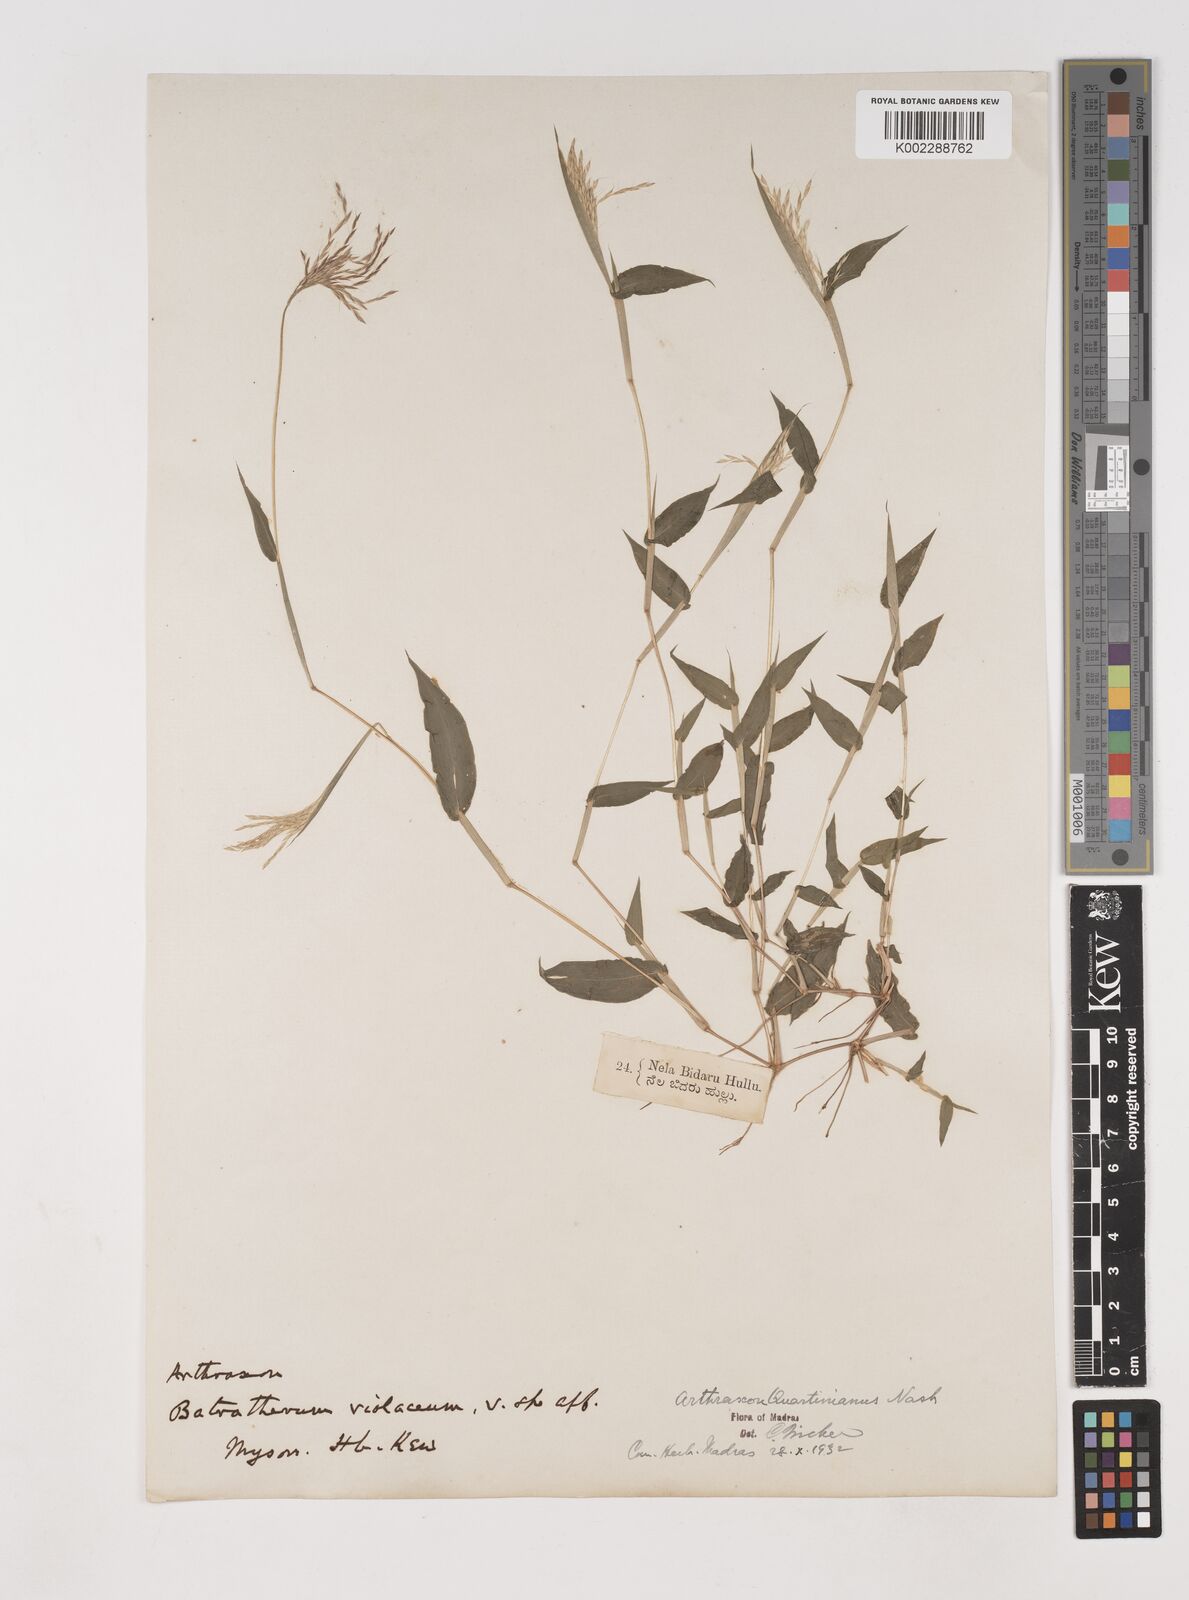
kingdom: Plantae
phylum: Tracheophyta
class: Liliopsida
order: Poales
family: Poaceae
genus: Arthraxon
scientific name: Arthraxon hispidus
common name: Small carpgrass
